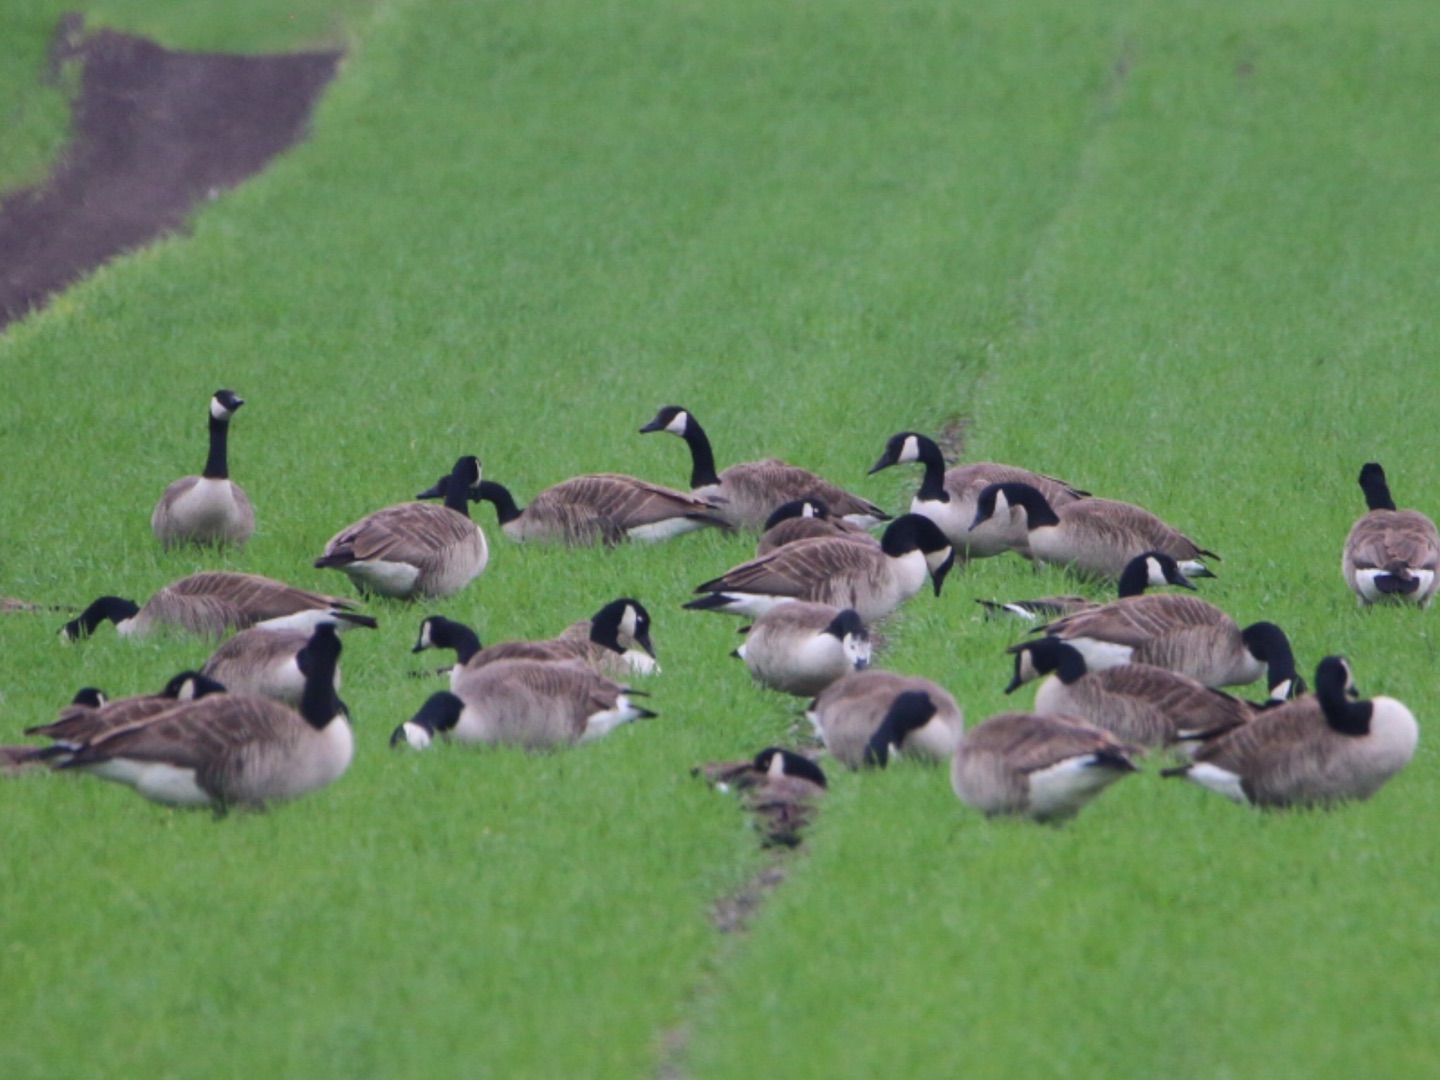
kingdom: Animalia
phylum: Chordata
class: Aves
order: Anseriformes
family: Anatidae
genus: Branta
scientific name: Branta canadensis
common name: Canadagås
